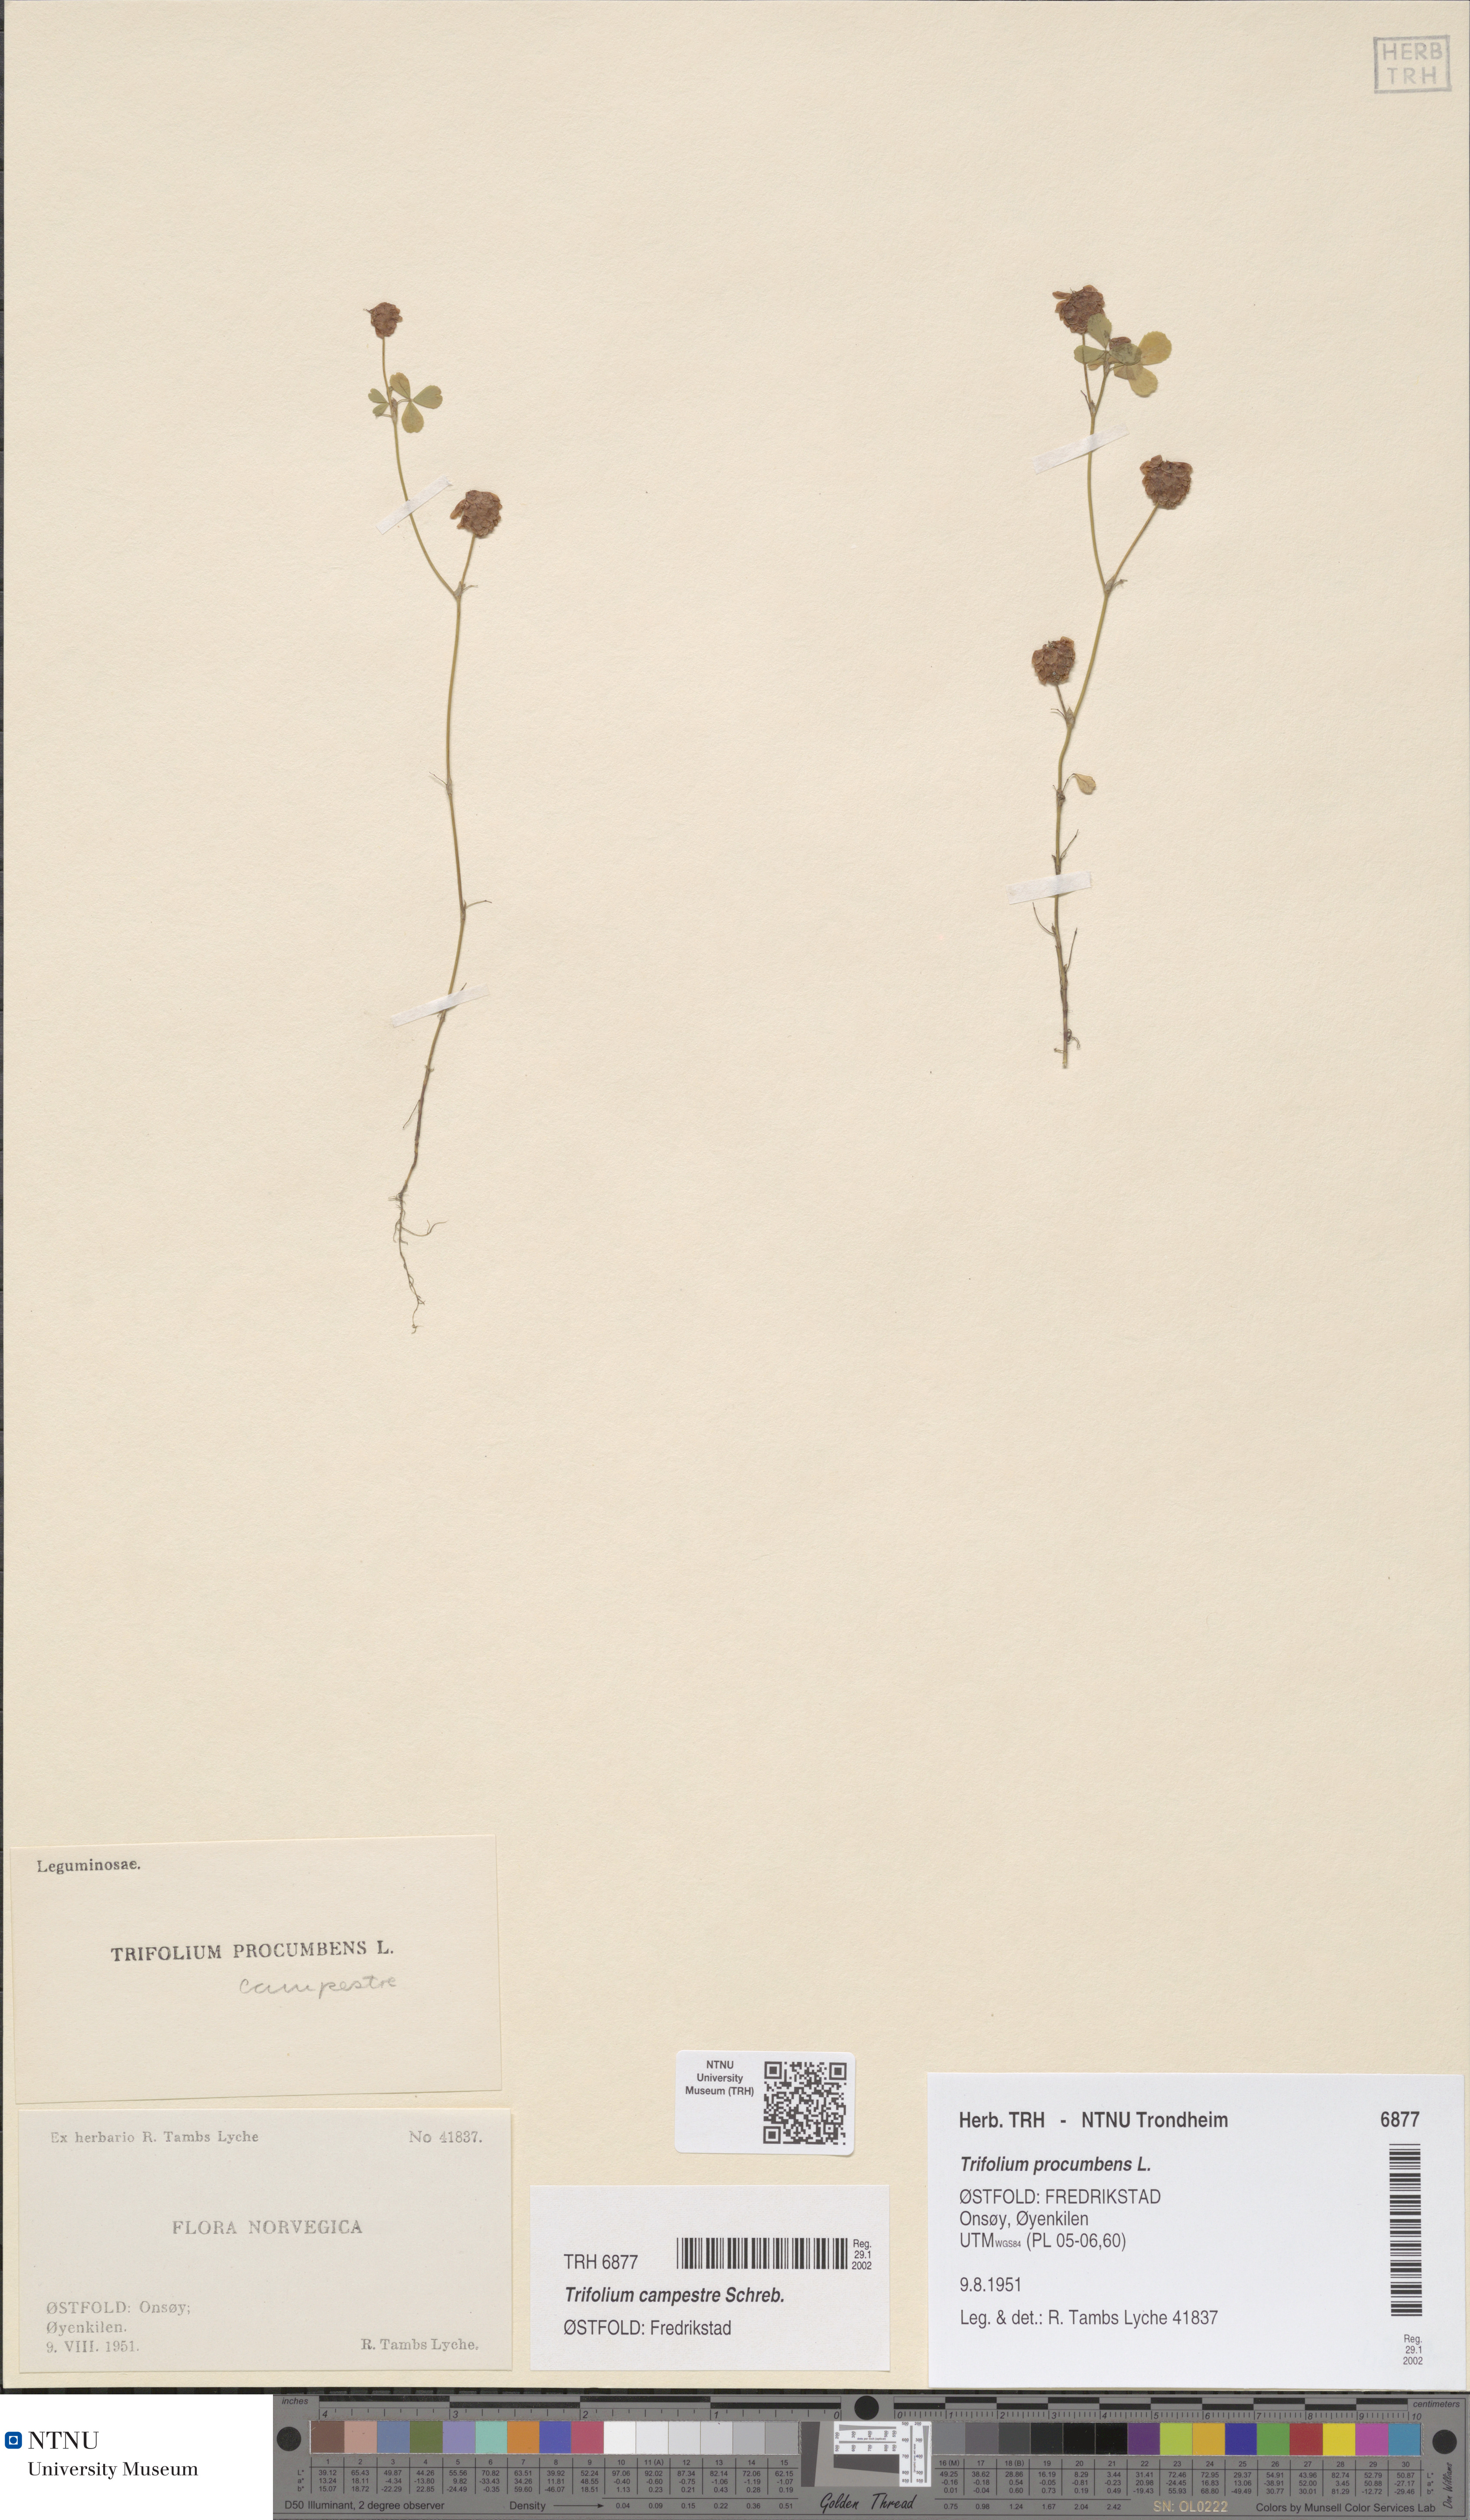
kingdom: Plantae
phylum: Tracheophyta
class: Magnoliopsida
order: Fabales
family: Fabaceae
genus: Trifolium
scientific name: Trifolium campestre
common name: Field clover
